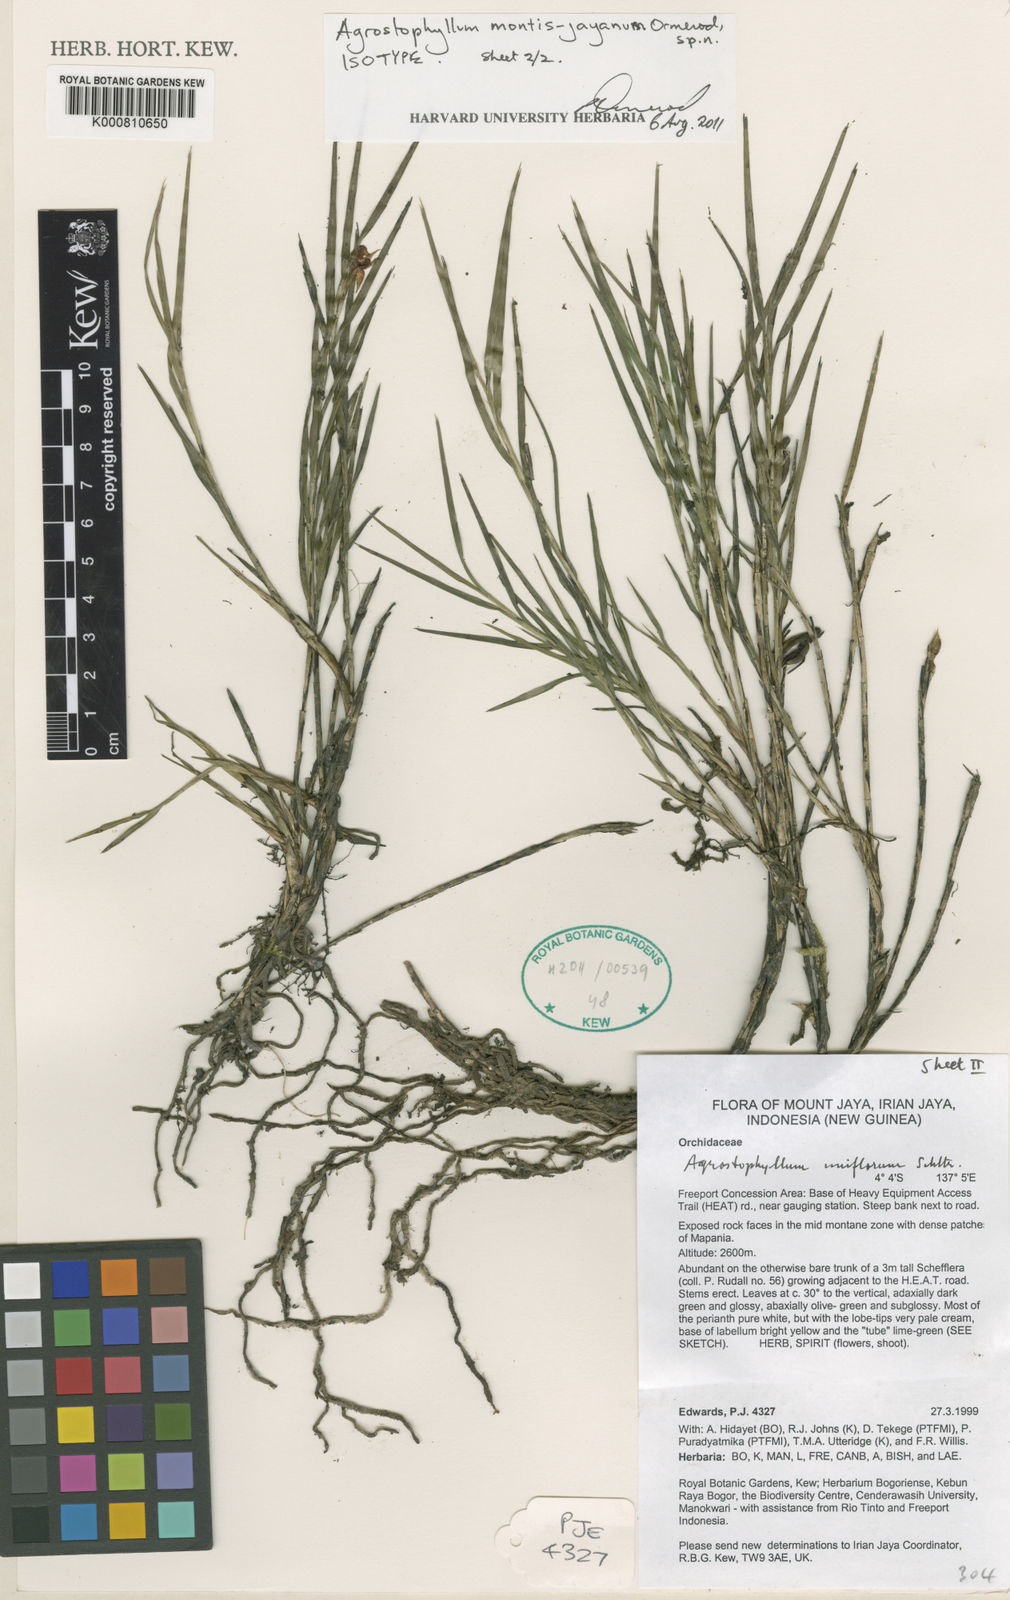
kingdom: Plantae
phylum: Tracheophyta
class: Liliopsida
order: Asparagales
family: Orchidaceae
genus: Agrostophyllum
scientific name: Agrostophyllum montis-jayanum
